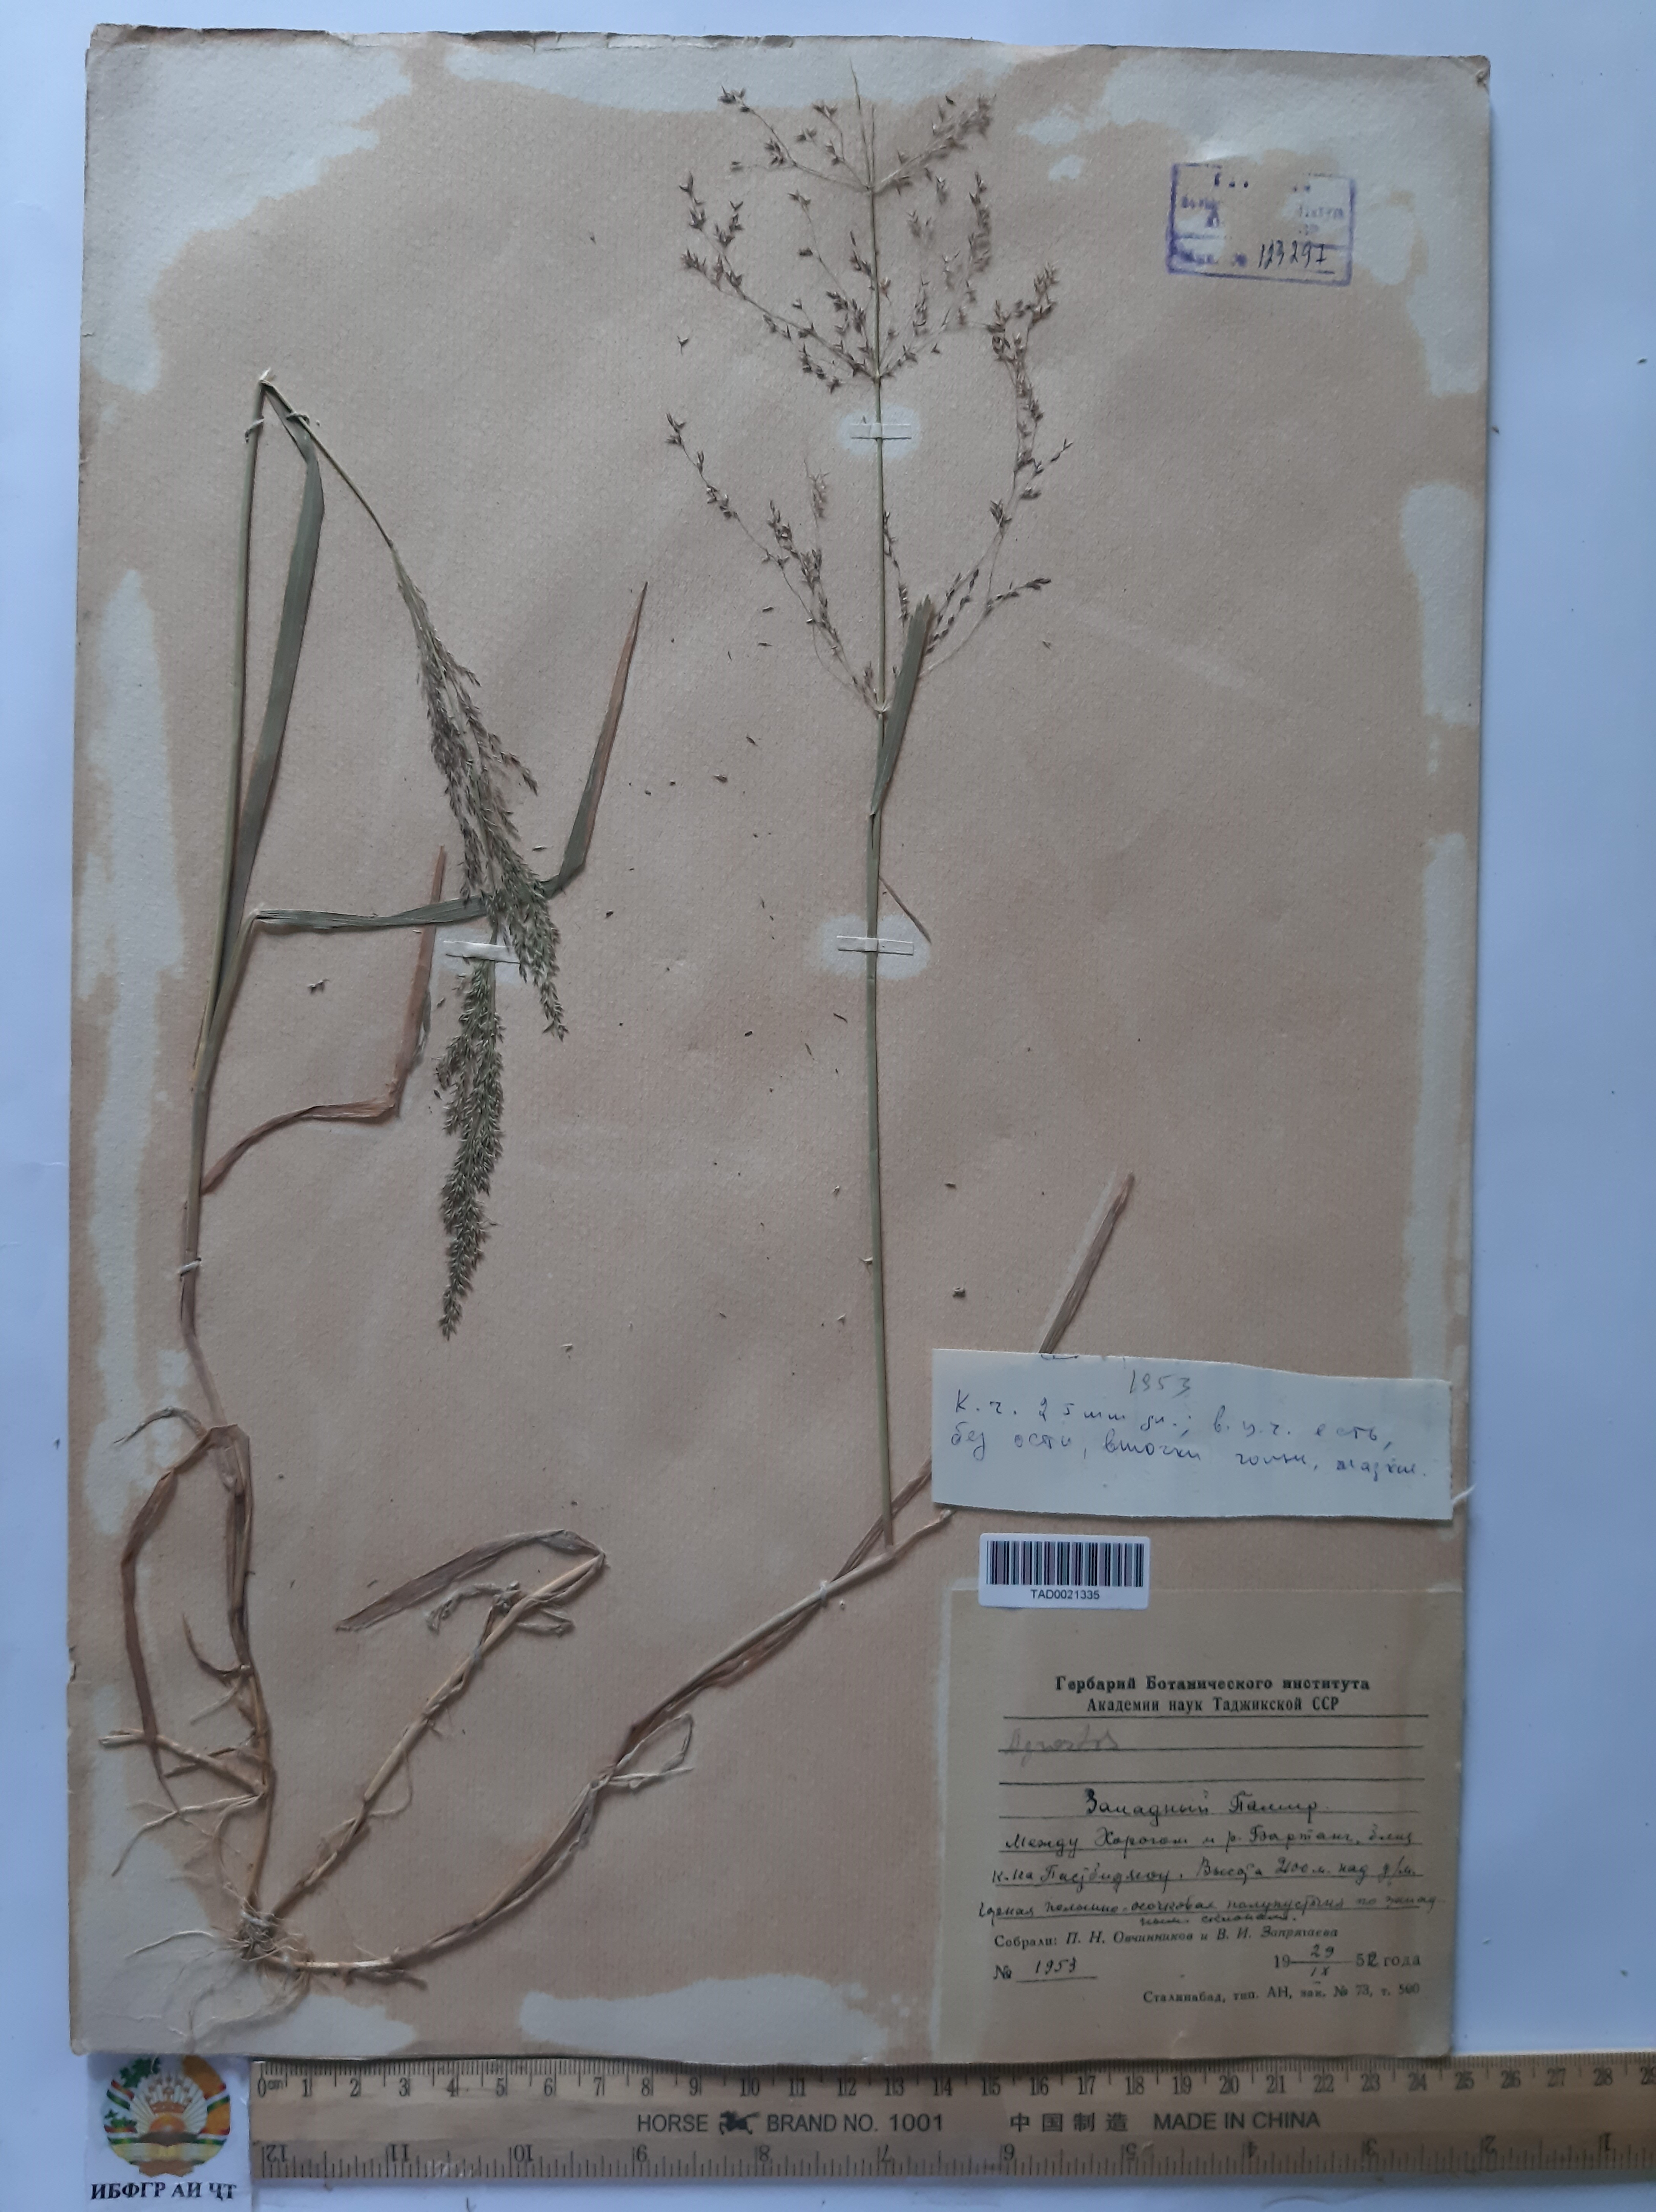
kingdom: Plantae
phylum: Tracheophyta
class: Liliopsida
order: Poales
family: Poaceae
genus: Poa
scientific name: Poa nemoralis
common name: Wood bluegrass
